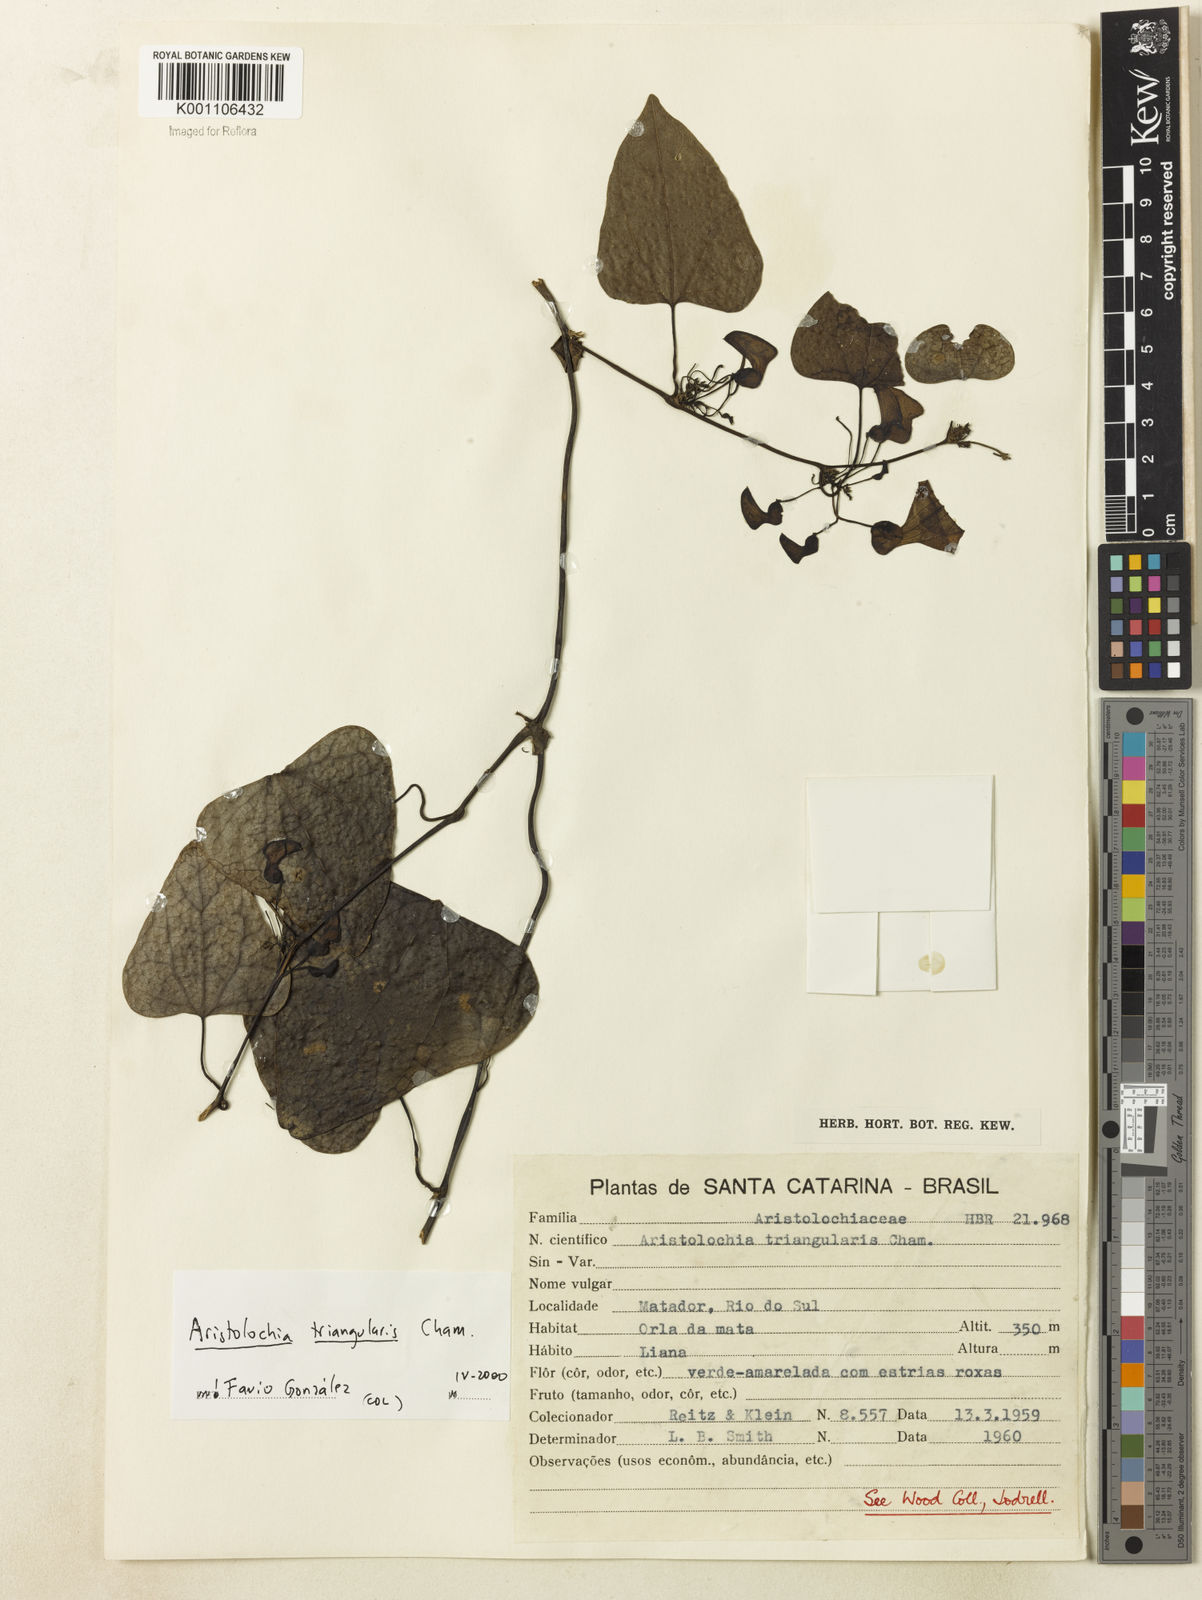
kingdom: Plantae
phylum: Tracheophyta
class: Magnoliopsida
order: Piperales
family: Aristolochiaceae
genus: Aristolochia
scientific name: Aristolochia triangularis
